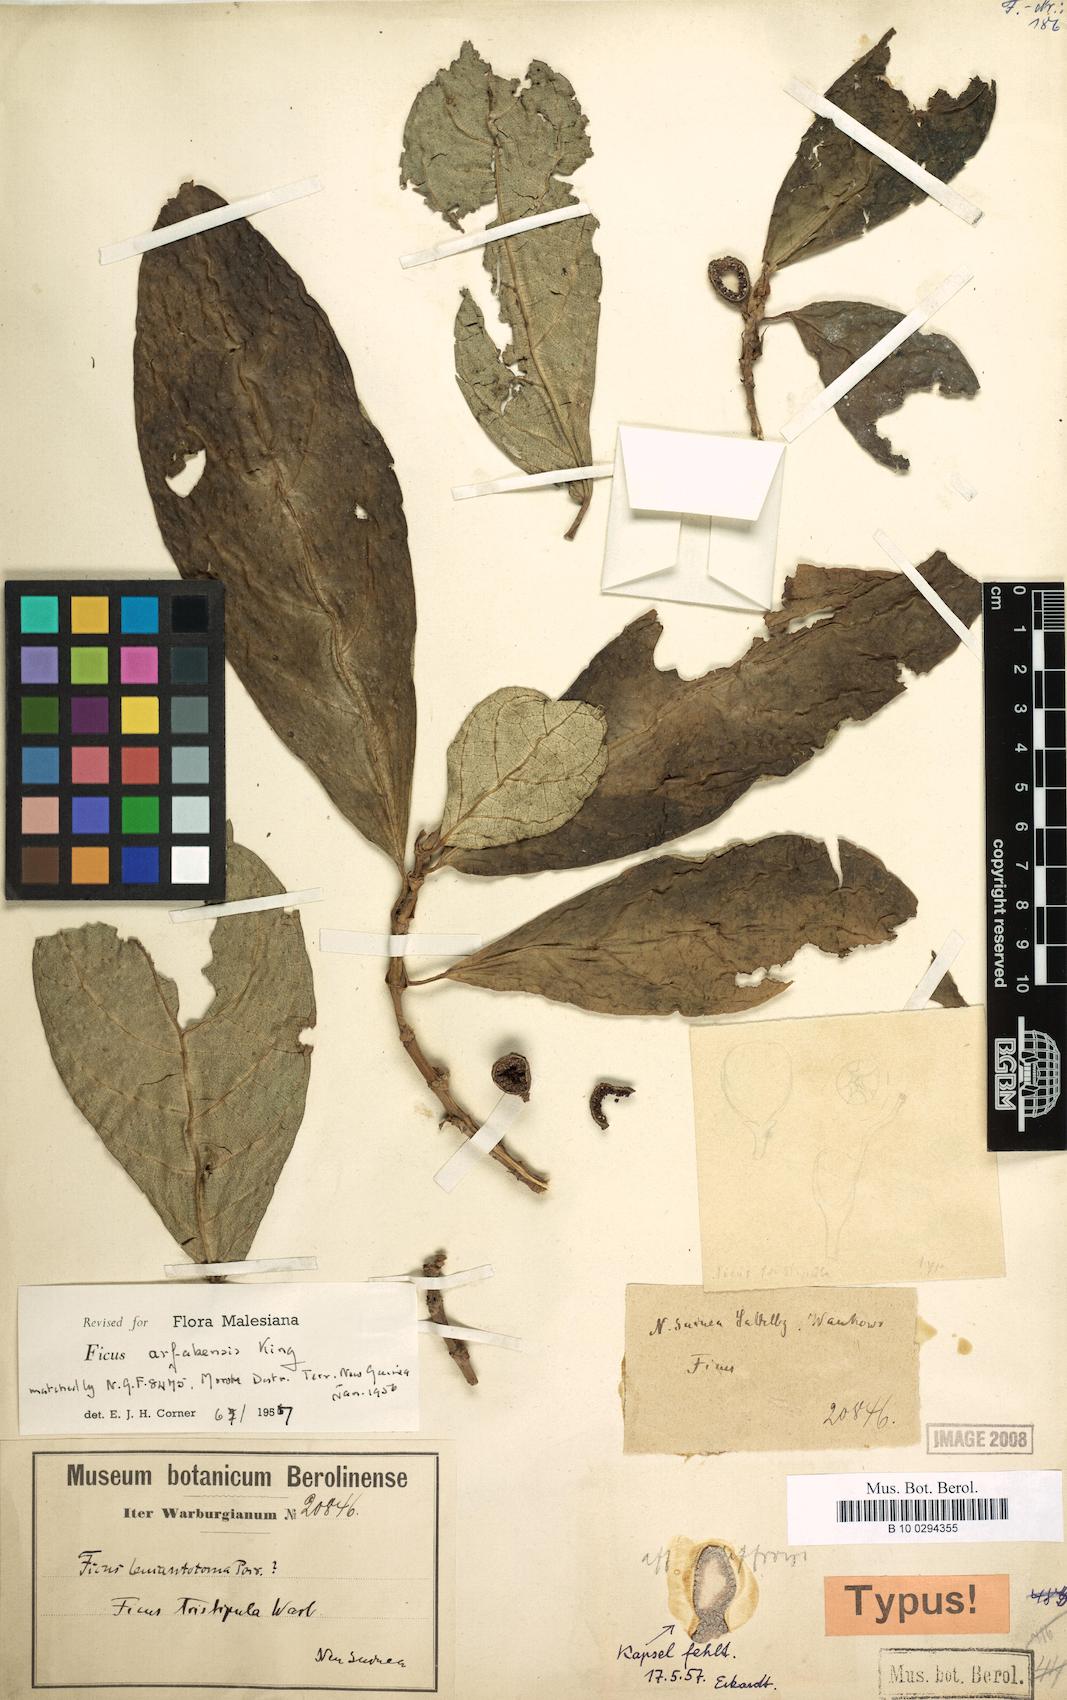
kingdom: Plantae
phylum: Tracheophyta
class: Magnoliopsida
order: Rosales
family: Moraceae
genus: Ficus
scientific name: Ficus ribes
